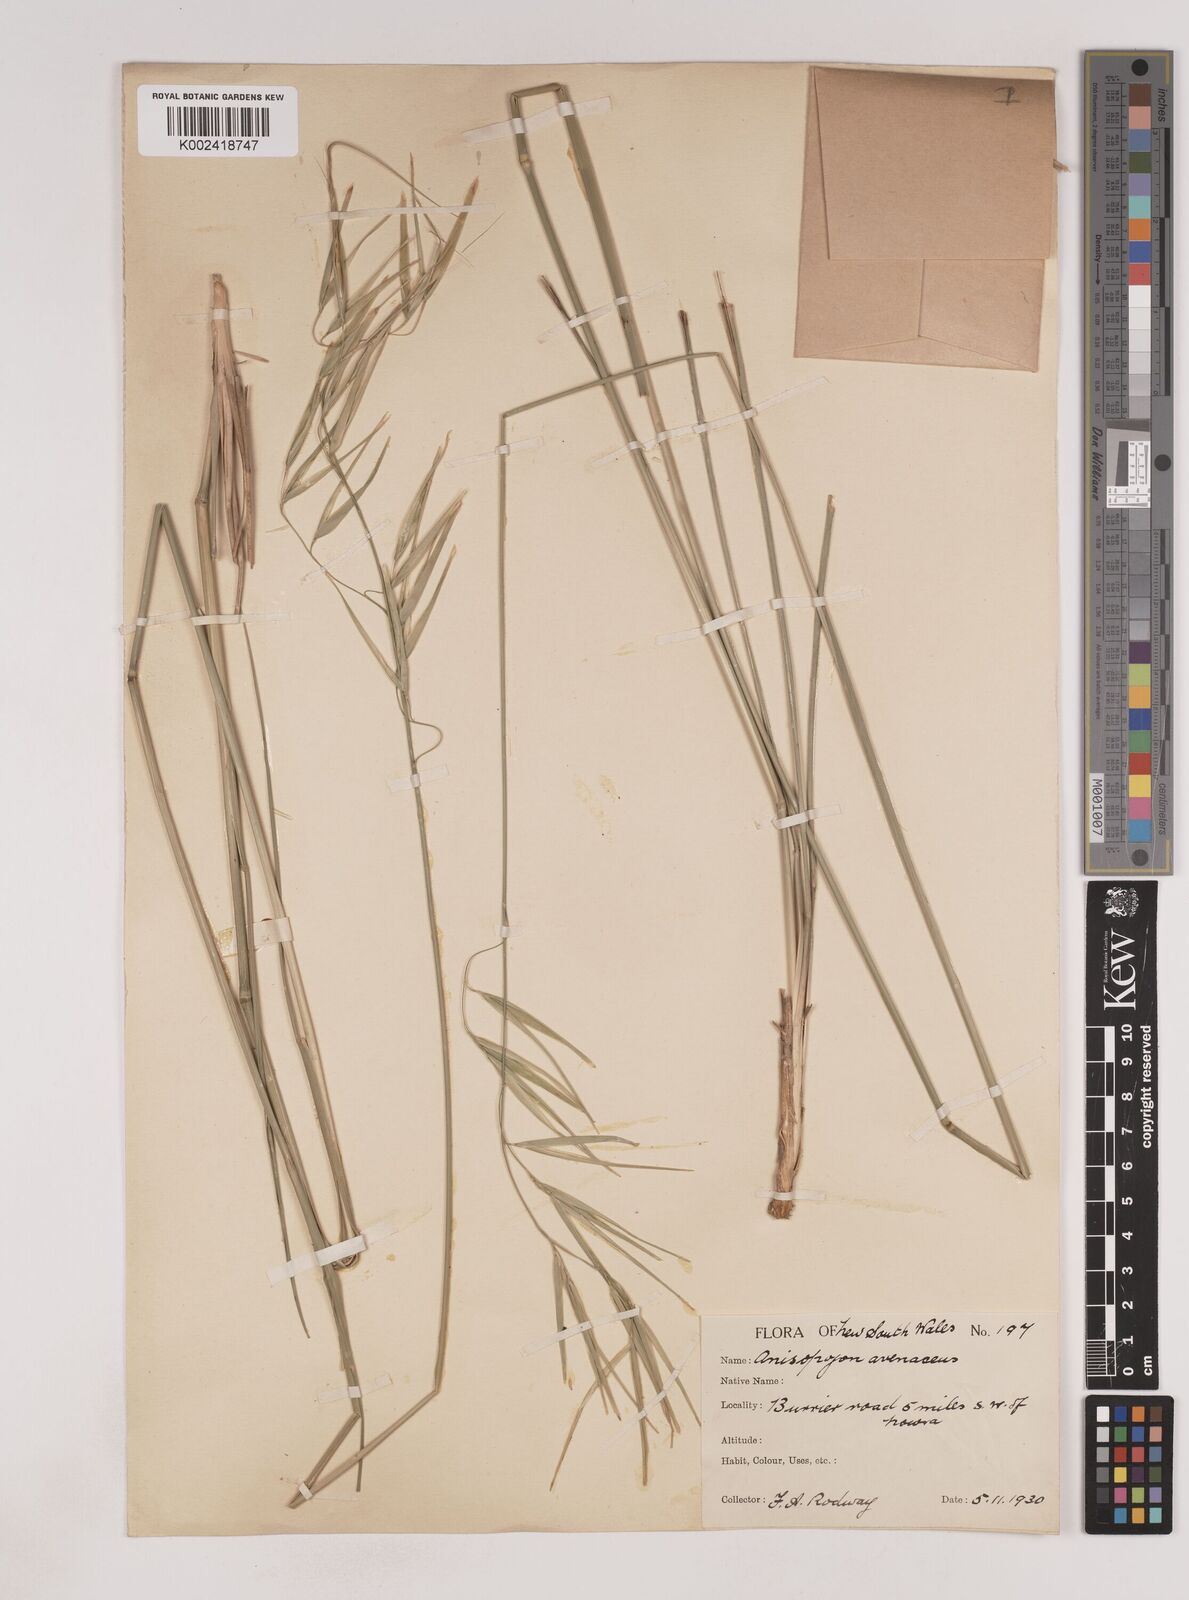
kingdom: Plantae
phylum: Tracheophyta
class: Liliopsida
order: Poales
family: Poaceae
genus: Anisopogon
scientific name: Anisopogon avenaceus
